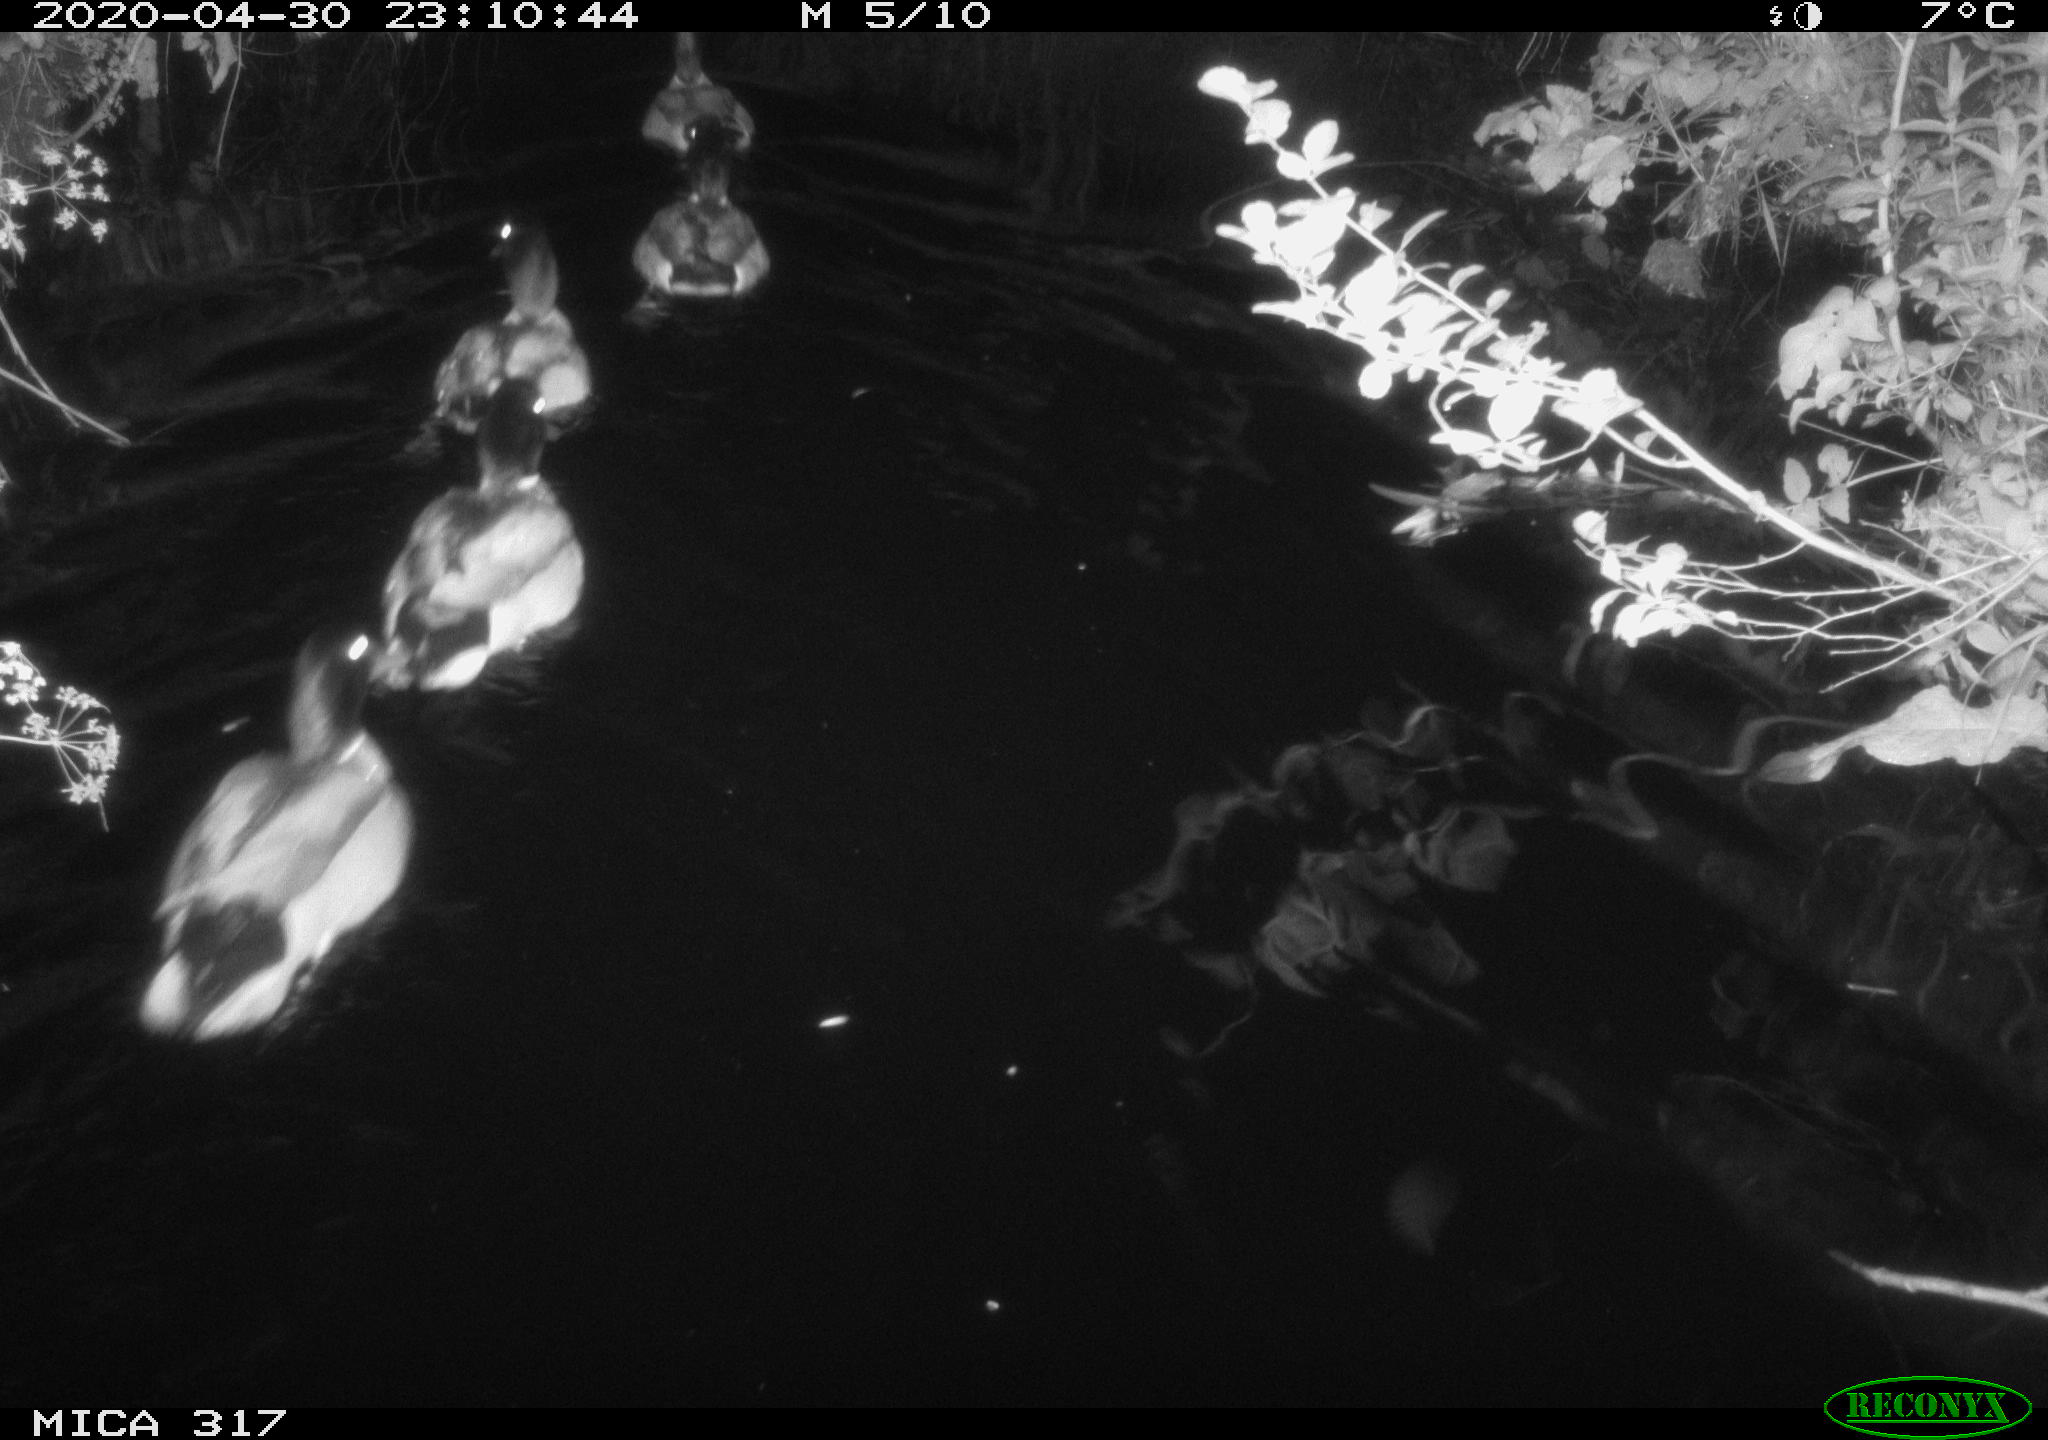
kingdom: Animalia
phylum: Chordata
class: Aves
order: Anseriformes
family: Anatidae
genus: Anas
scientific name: Anas platyrhynchos
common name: Mallard
